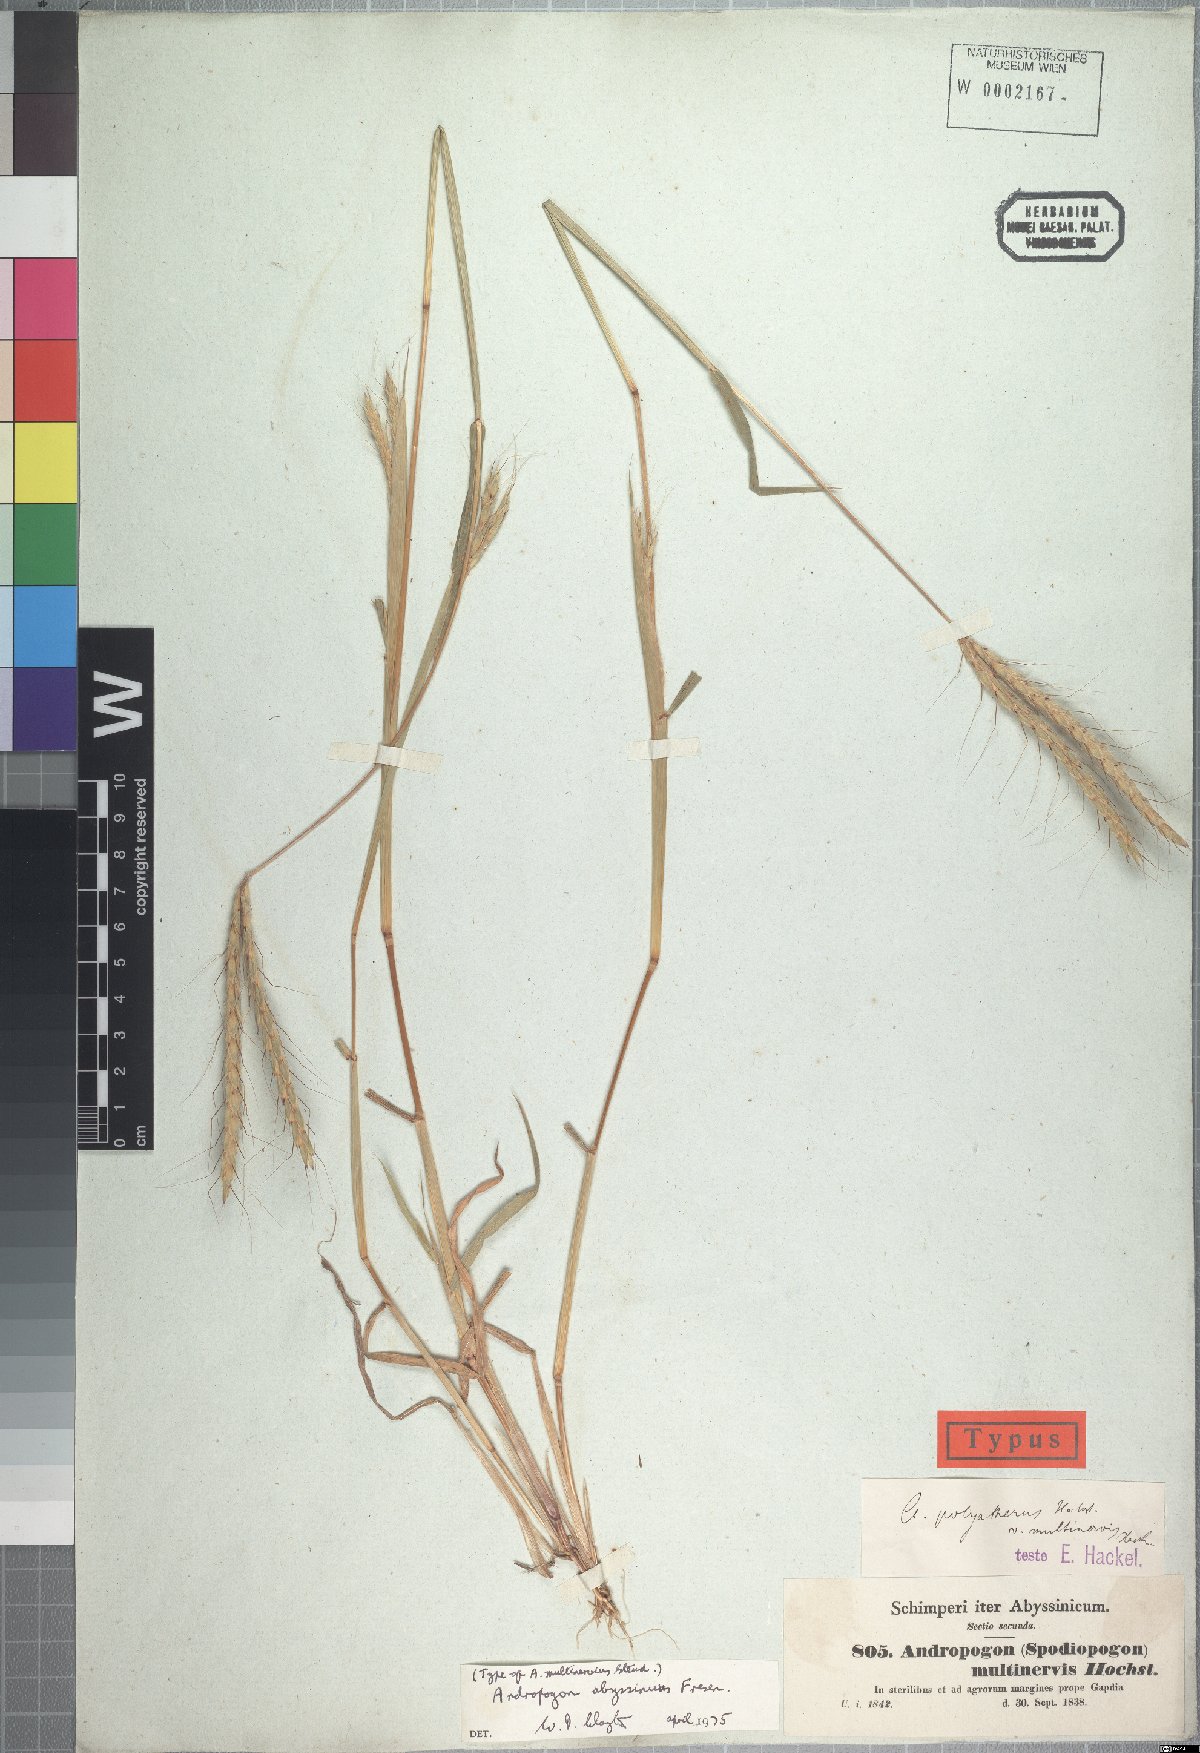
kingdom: Plantae
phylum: Tracheophyta
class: Liliopsida
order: Poales
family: Poaceae
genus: Andropogon
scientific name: Andropogon abyssinicus
